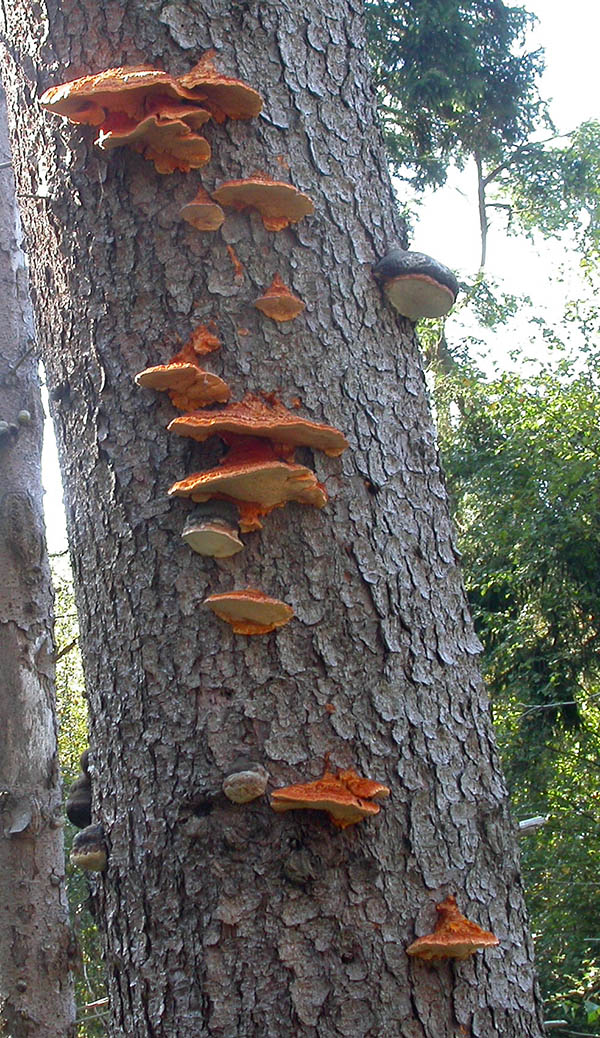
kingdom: Fungi
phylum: Basidiomycota
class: Agaricomycetes
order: Polyporales
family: Pycnoporellaceae
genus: Pycnoporellus
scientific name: Pycnoporellus fulgens
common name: flammeporesvamp
